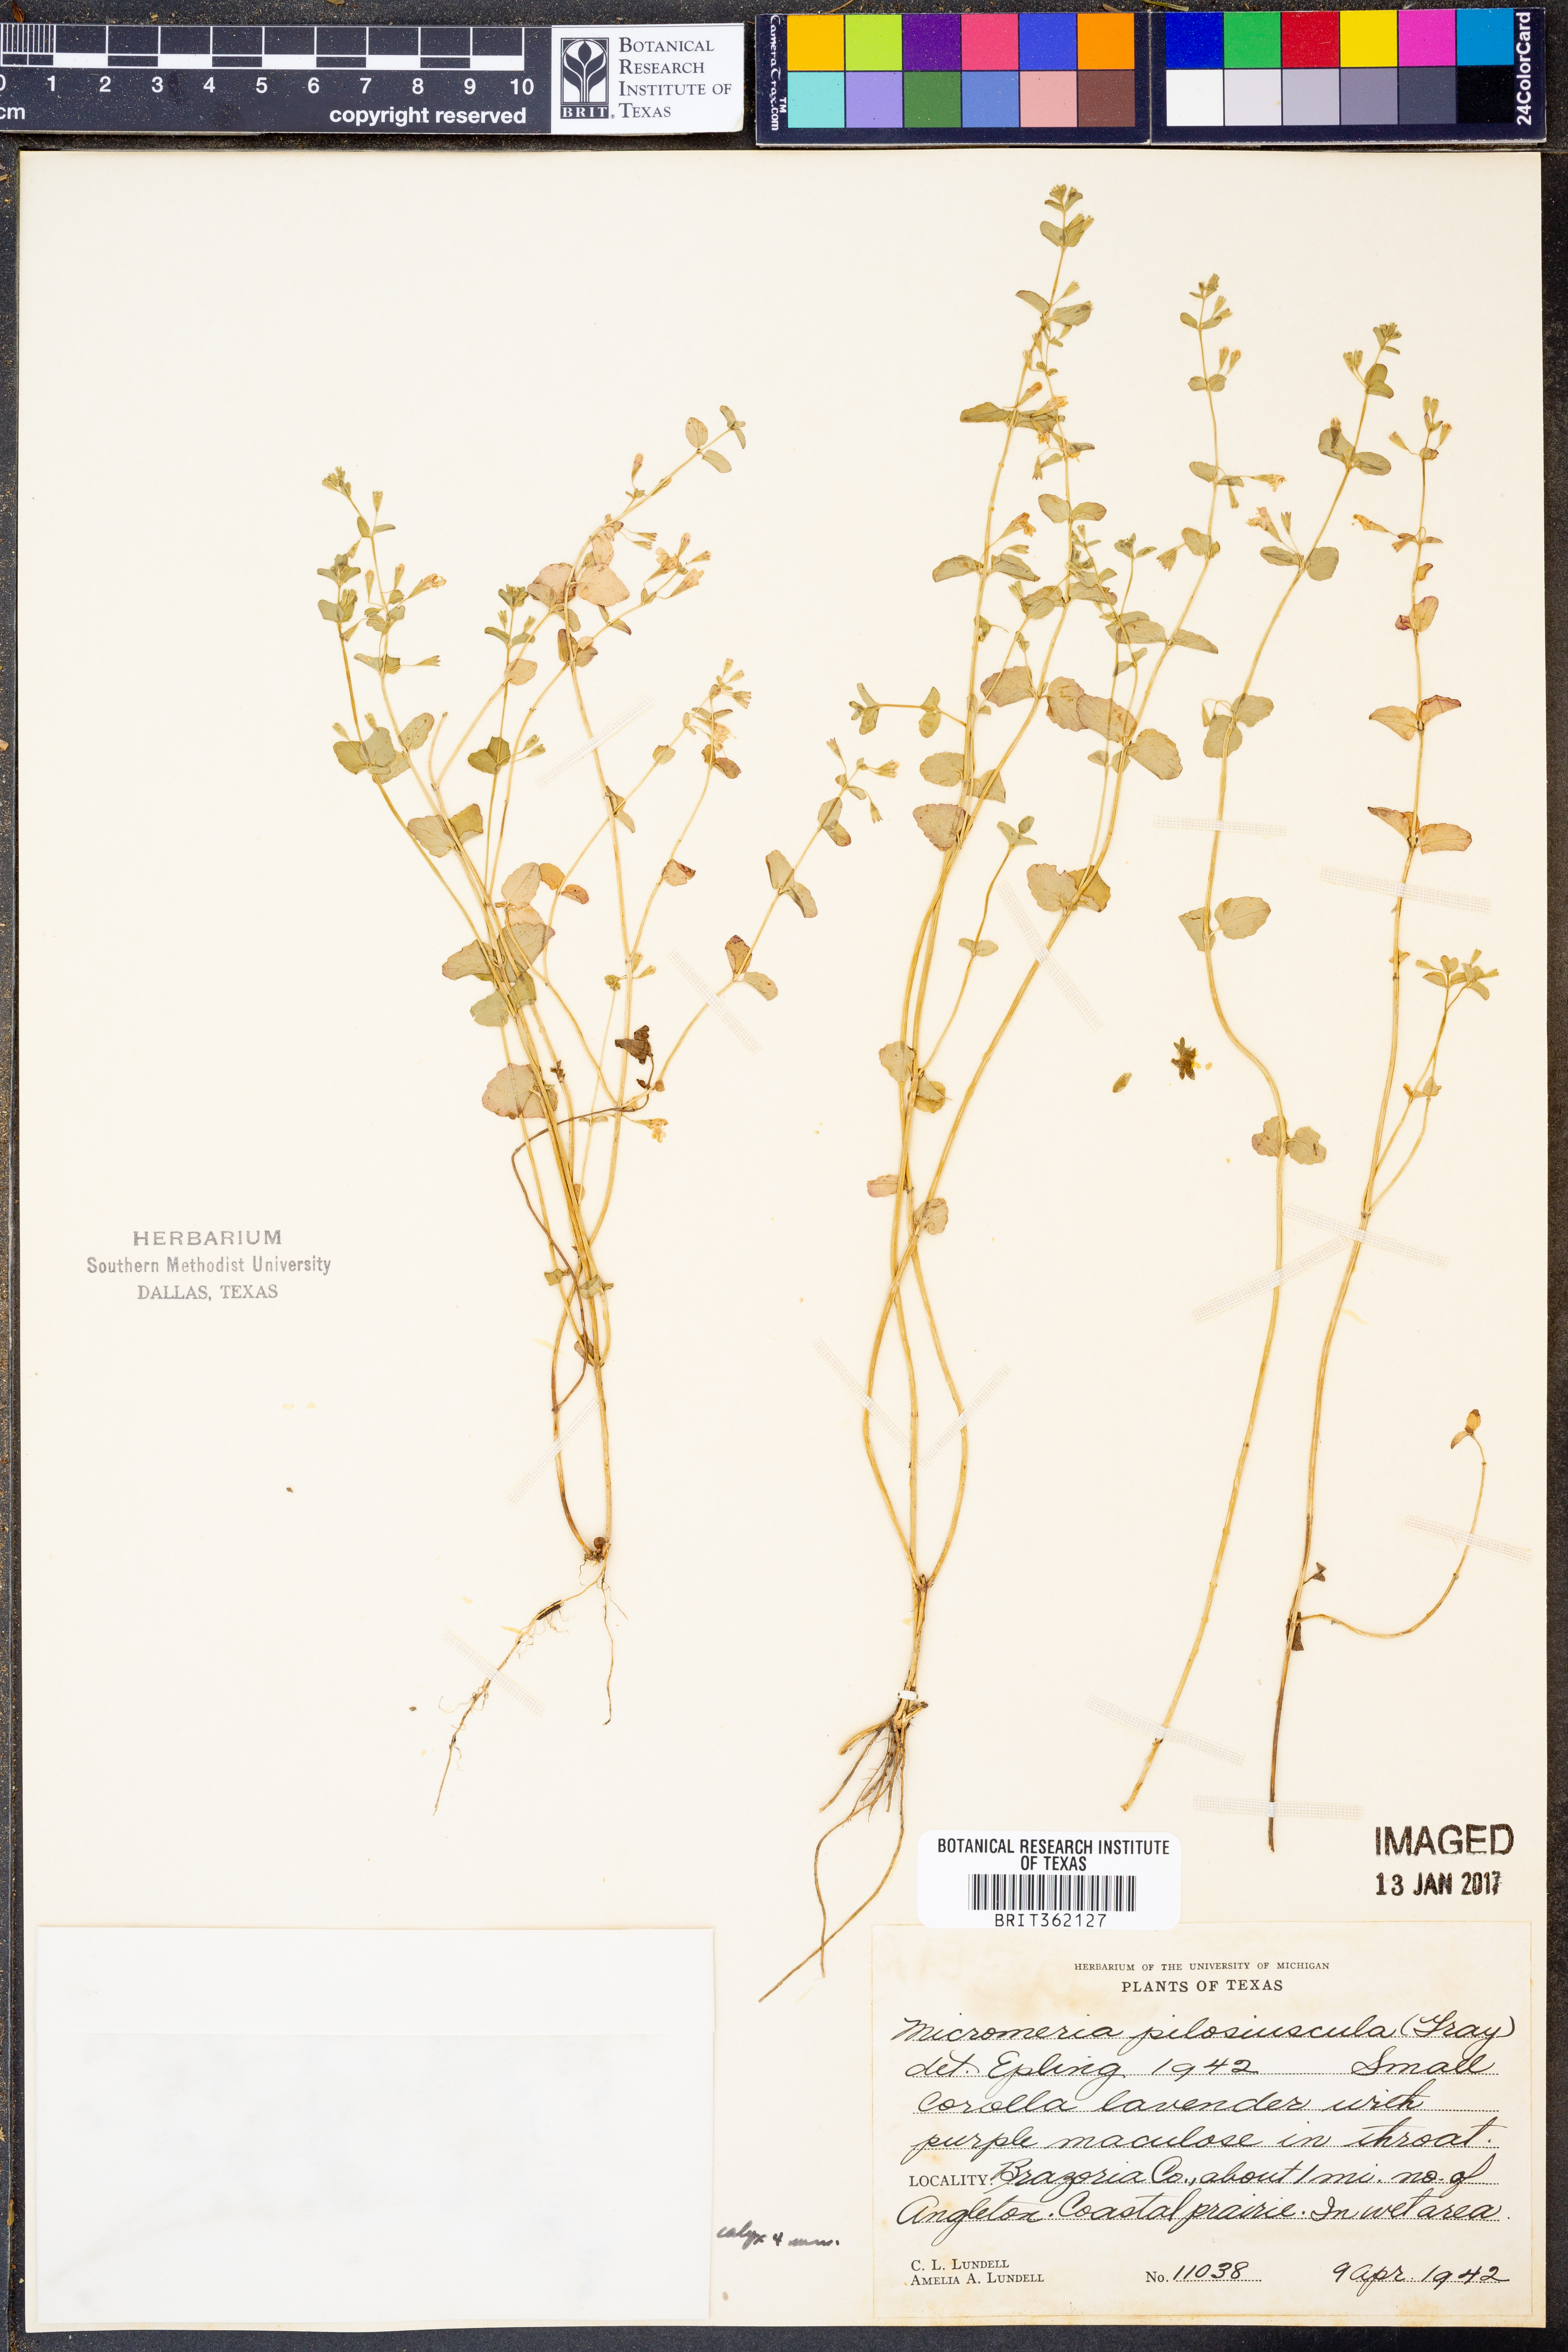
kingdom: Plantae
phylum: Tracheophyta
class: Magnoliopsida
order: Lamiales
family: Lamiaceae
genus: Clinopodium
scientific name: Clinopodium brownei
